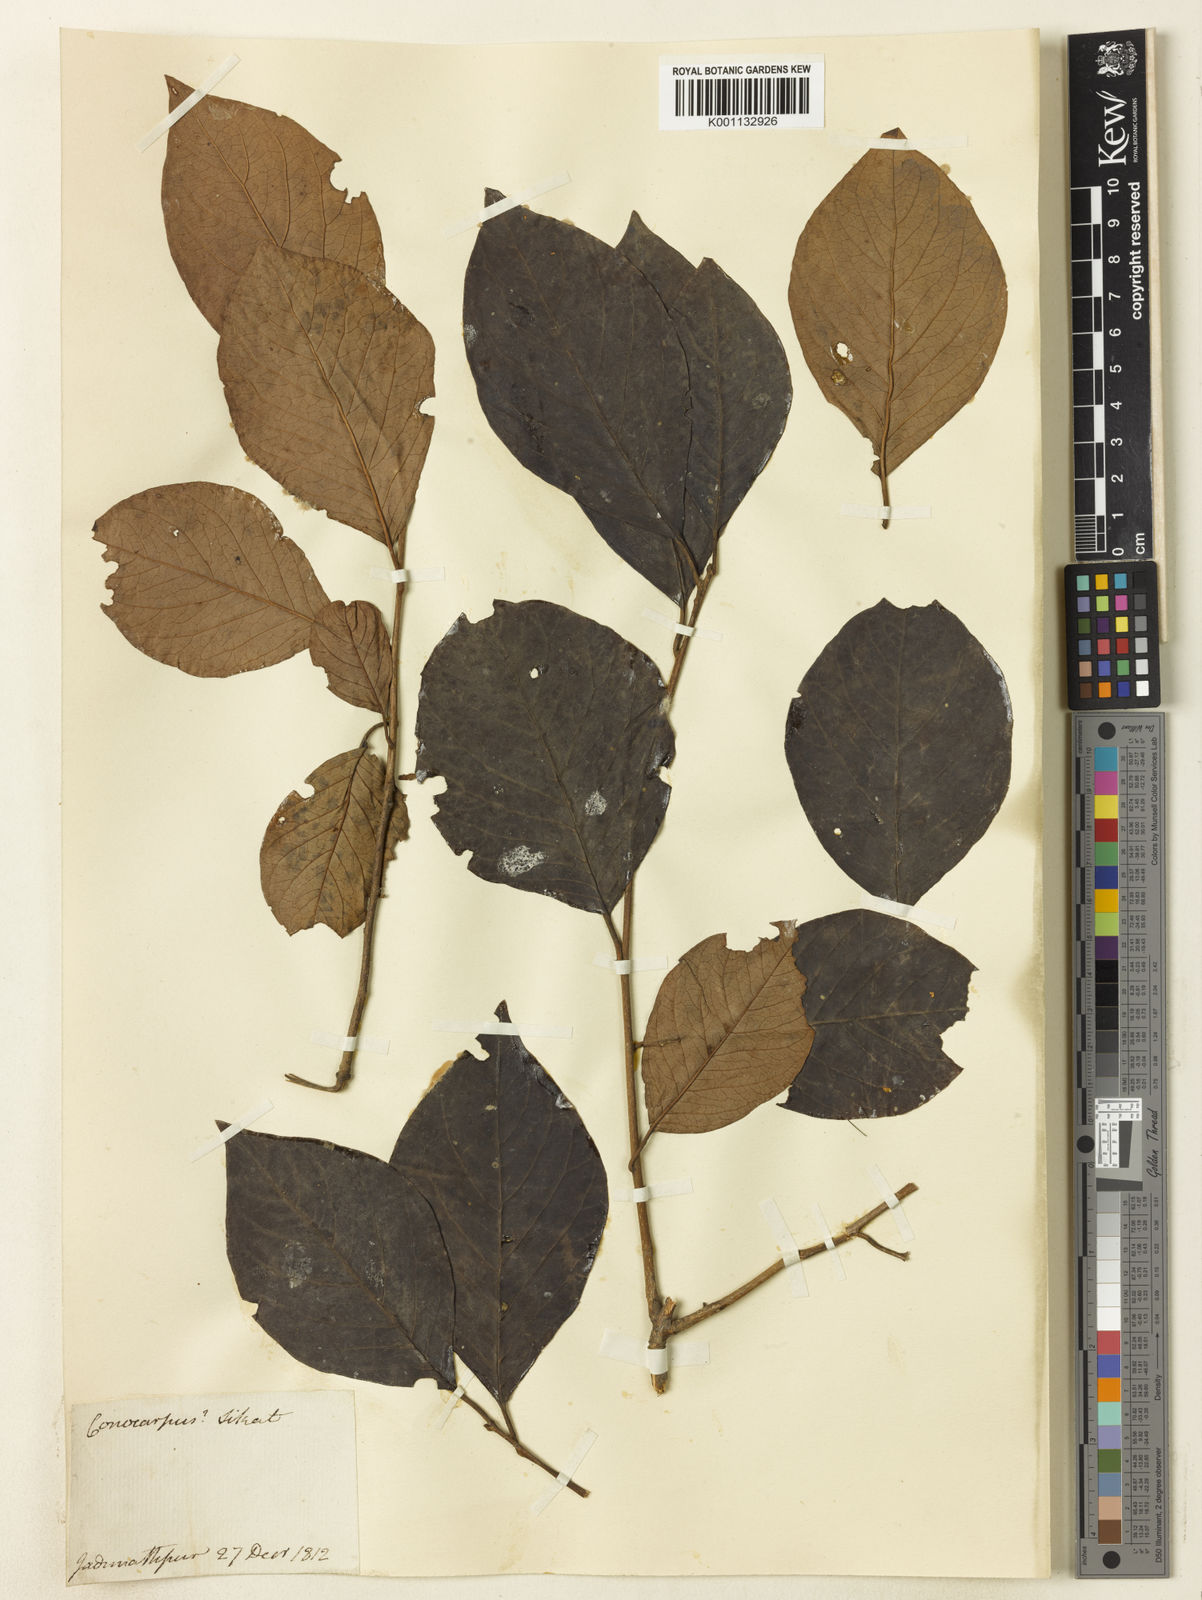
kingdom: Plantae
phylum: Tracheophyta
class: Magnoliopsida
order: Myrtales
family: Combretaceae
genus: Conocarpus
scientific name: Conocarpus
